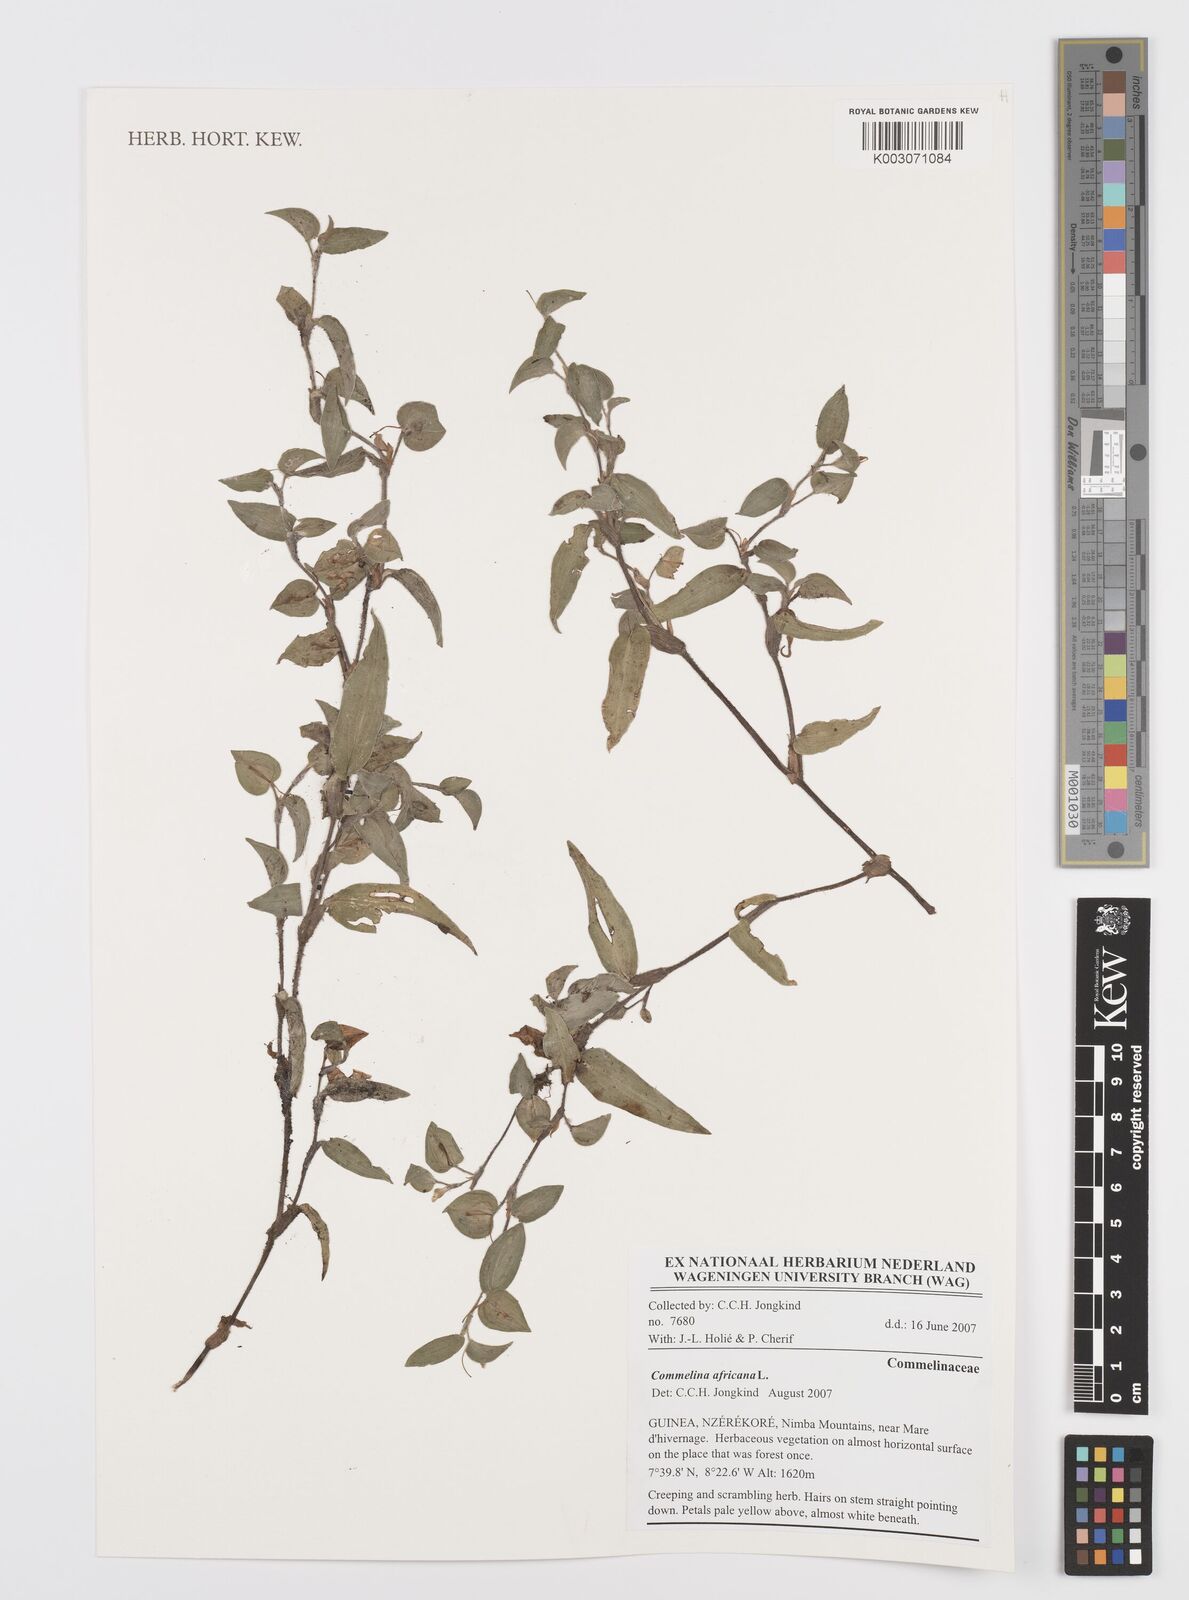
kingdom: Plantae
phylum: Tracheophyta
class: Liliopsida
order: Commelinales
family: Commelinaceae
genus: Commelina
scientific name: Commelina africana
